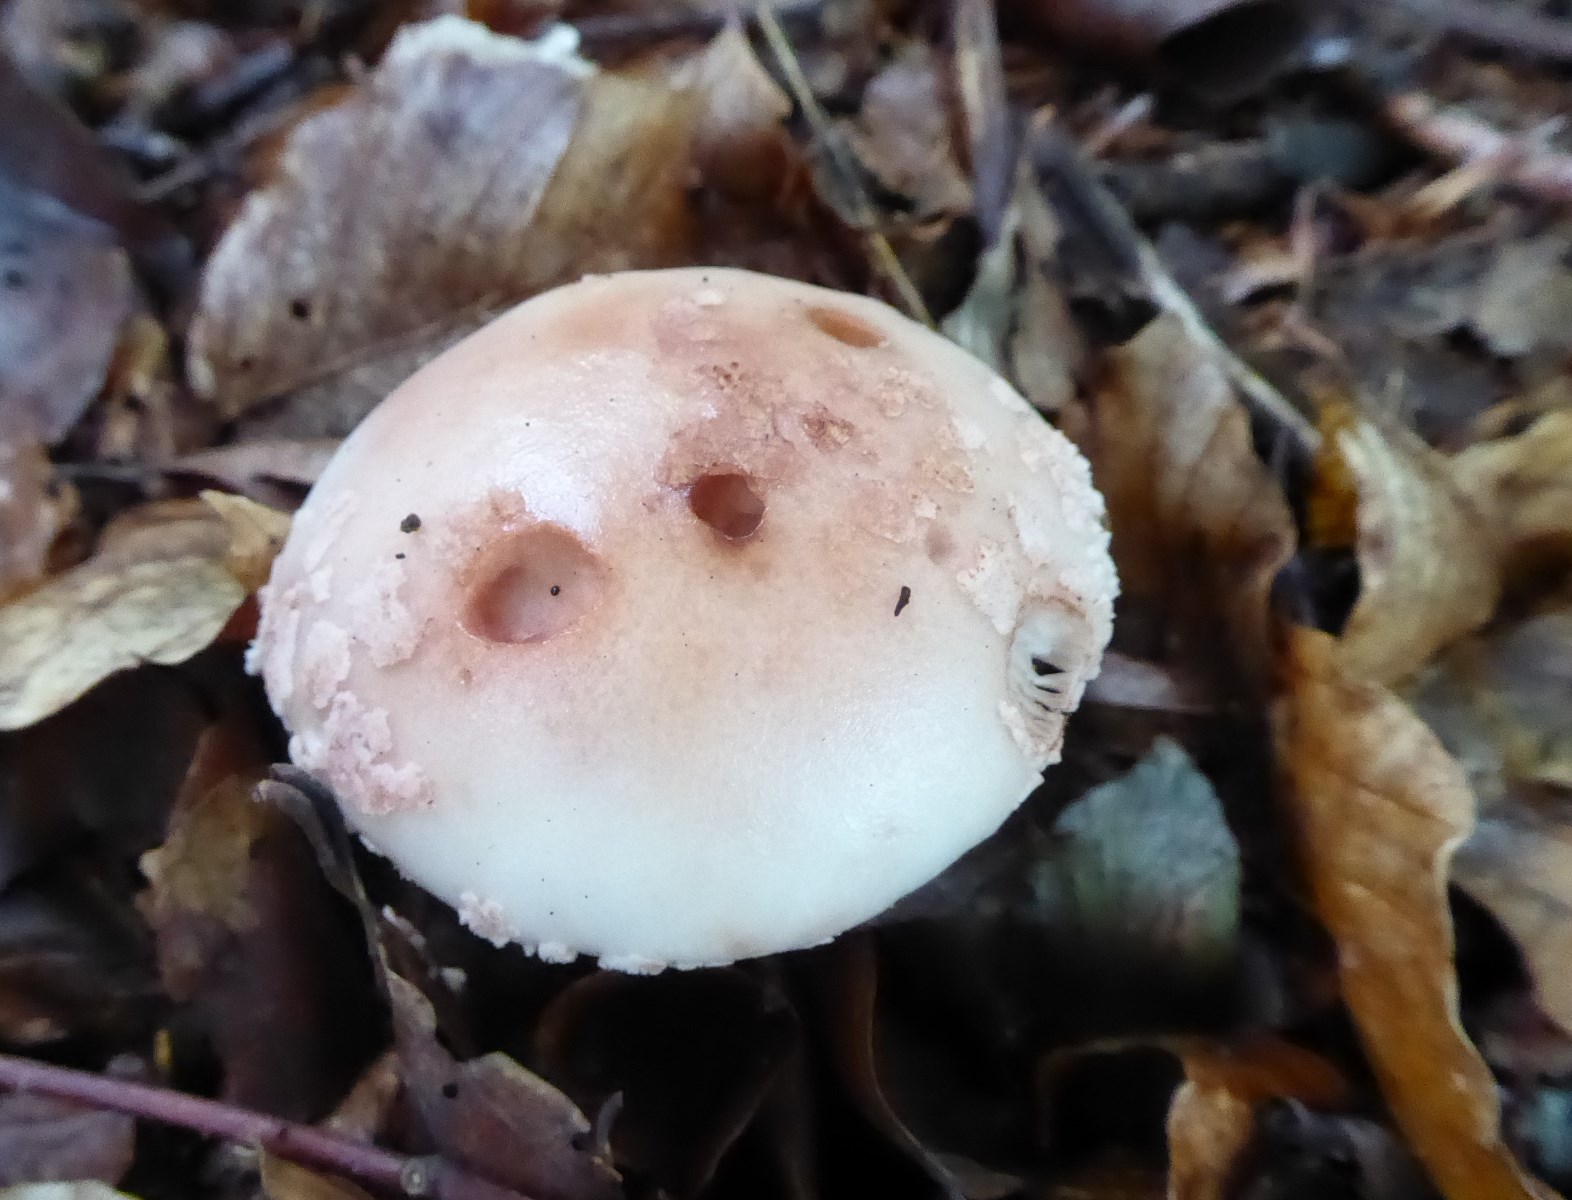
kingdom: Fungi
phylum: Basidiomycota
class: Agaricomycetes
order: Agaricales
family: Amanitaceae
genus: Amanita
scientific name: Amanita rubescens
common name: rødmende fluesvamp
